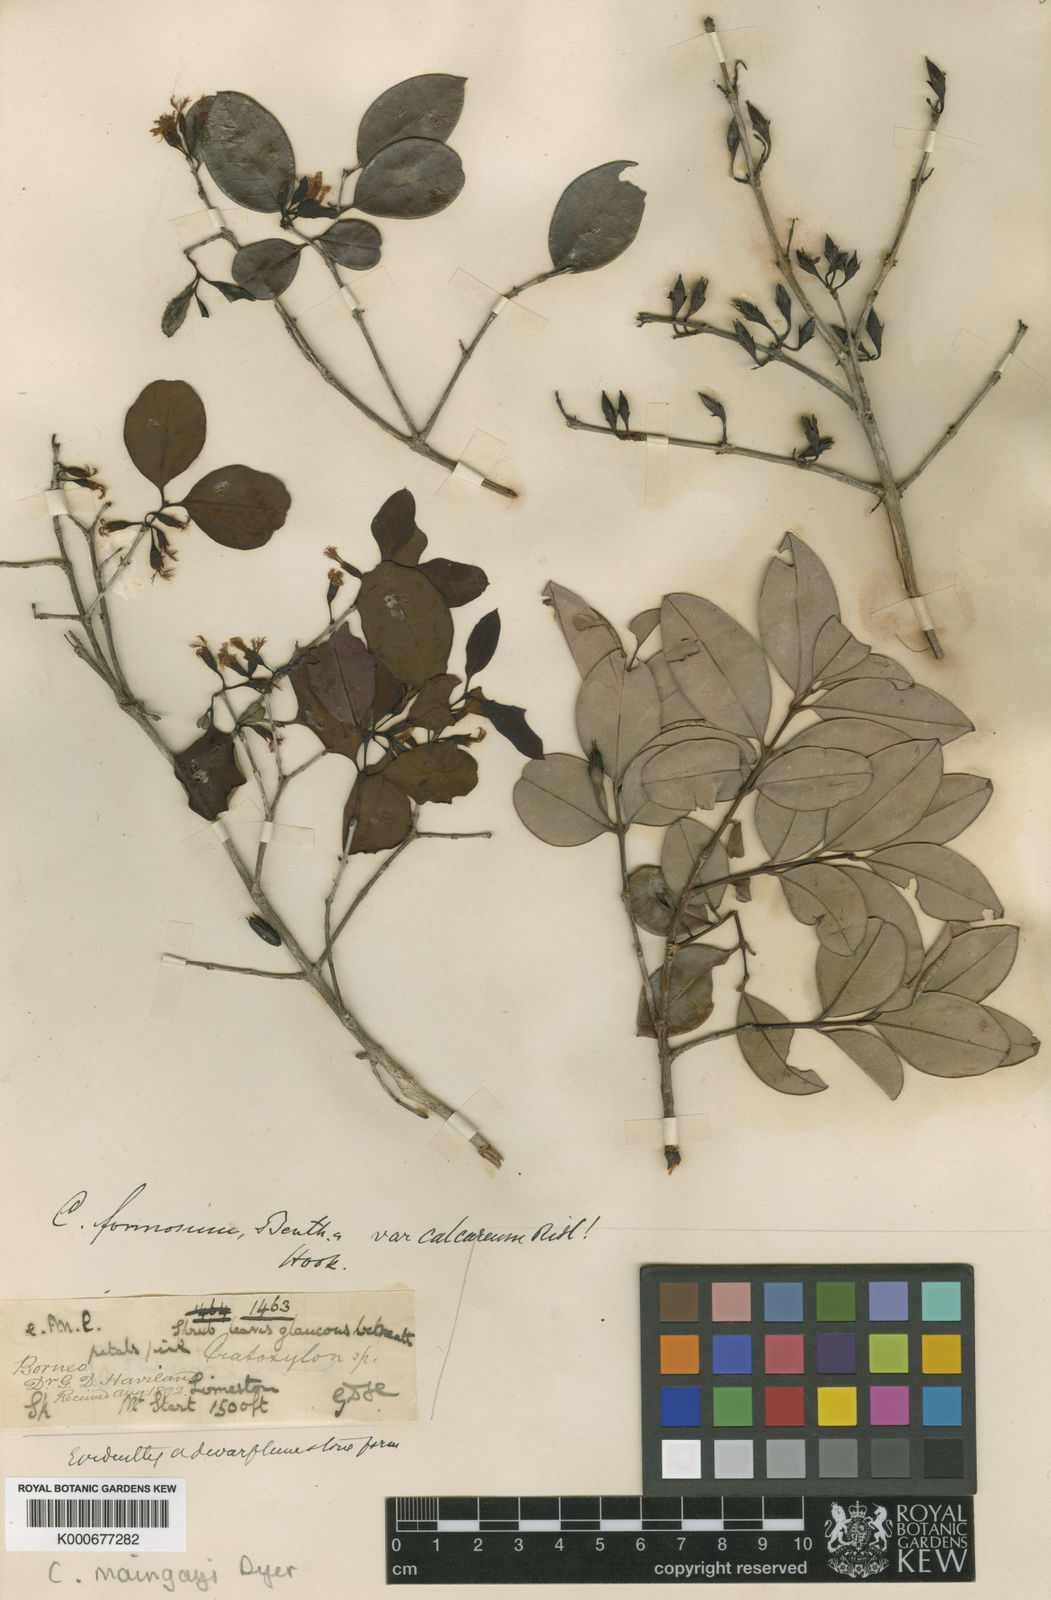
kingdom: Plantae
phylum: Tracheophyta
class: Magnoliopsida
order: Malpighiales
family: Hypericaceae
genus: Cratoxylum
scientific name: Cratoxylum maingayi
